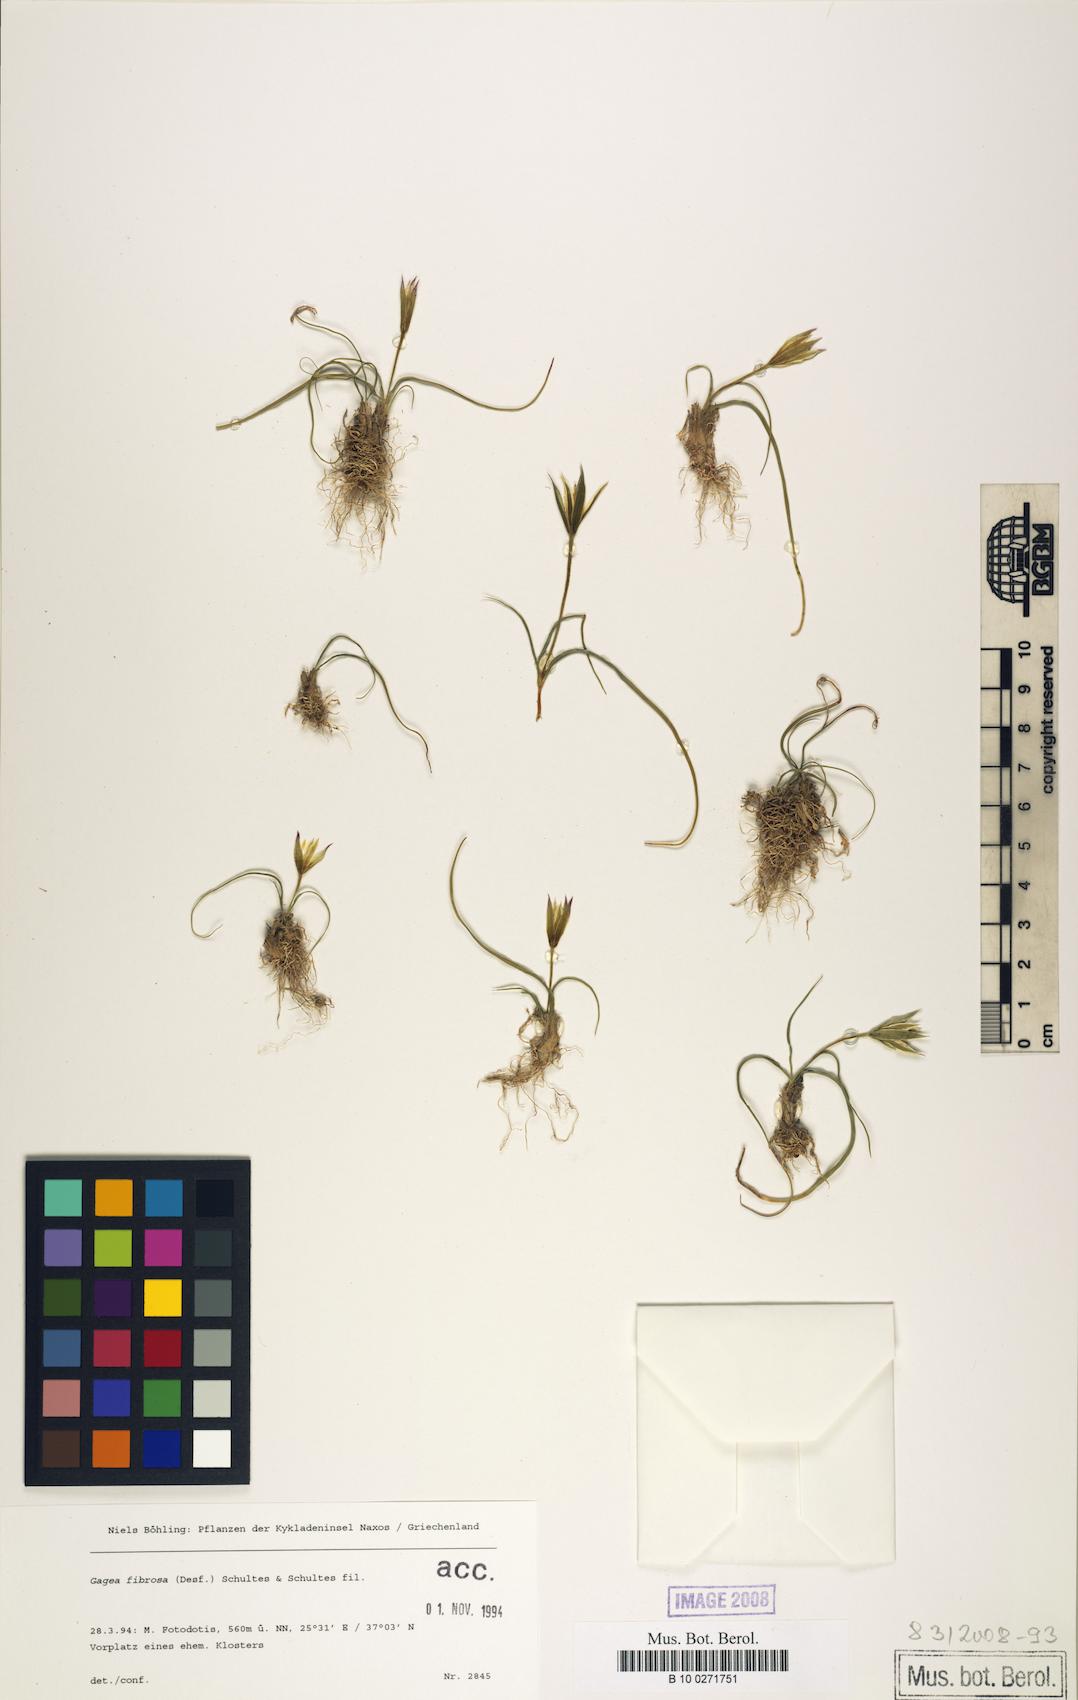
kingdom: Plantae
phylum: Tracheophyta
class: Liliopsida
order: Liliales
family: Liliaceae
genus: Gagea
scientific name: Gagea fibrosa
